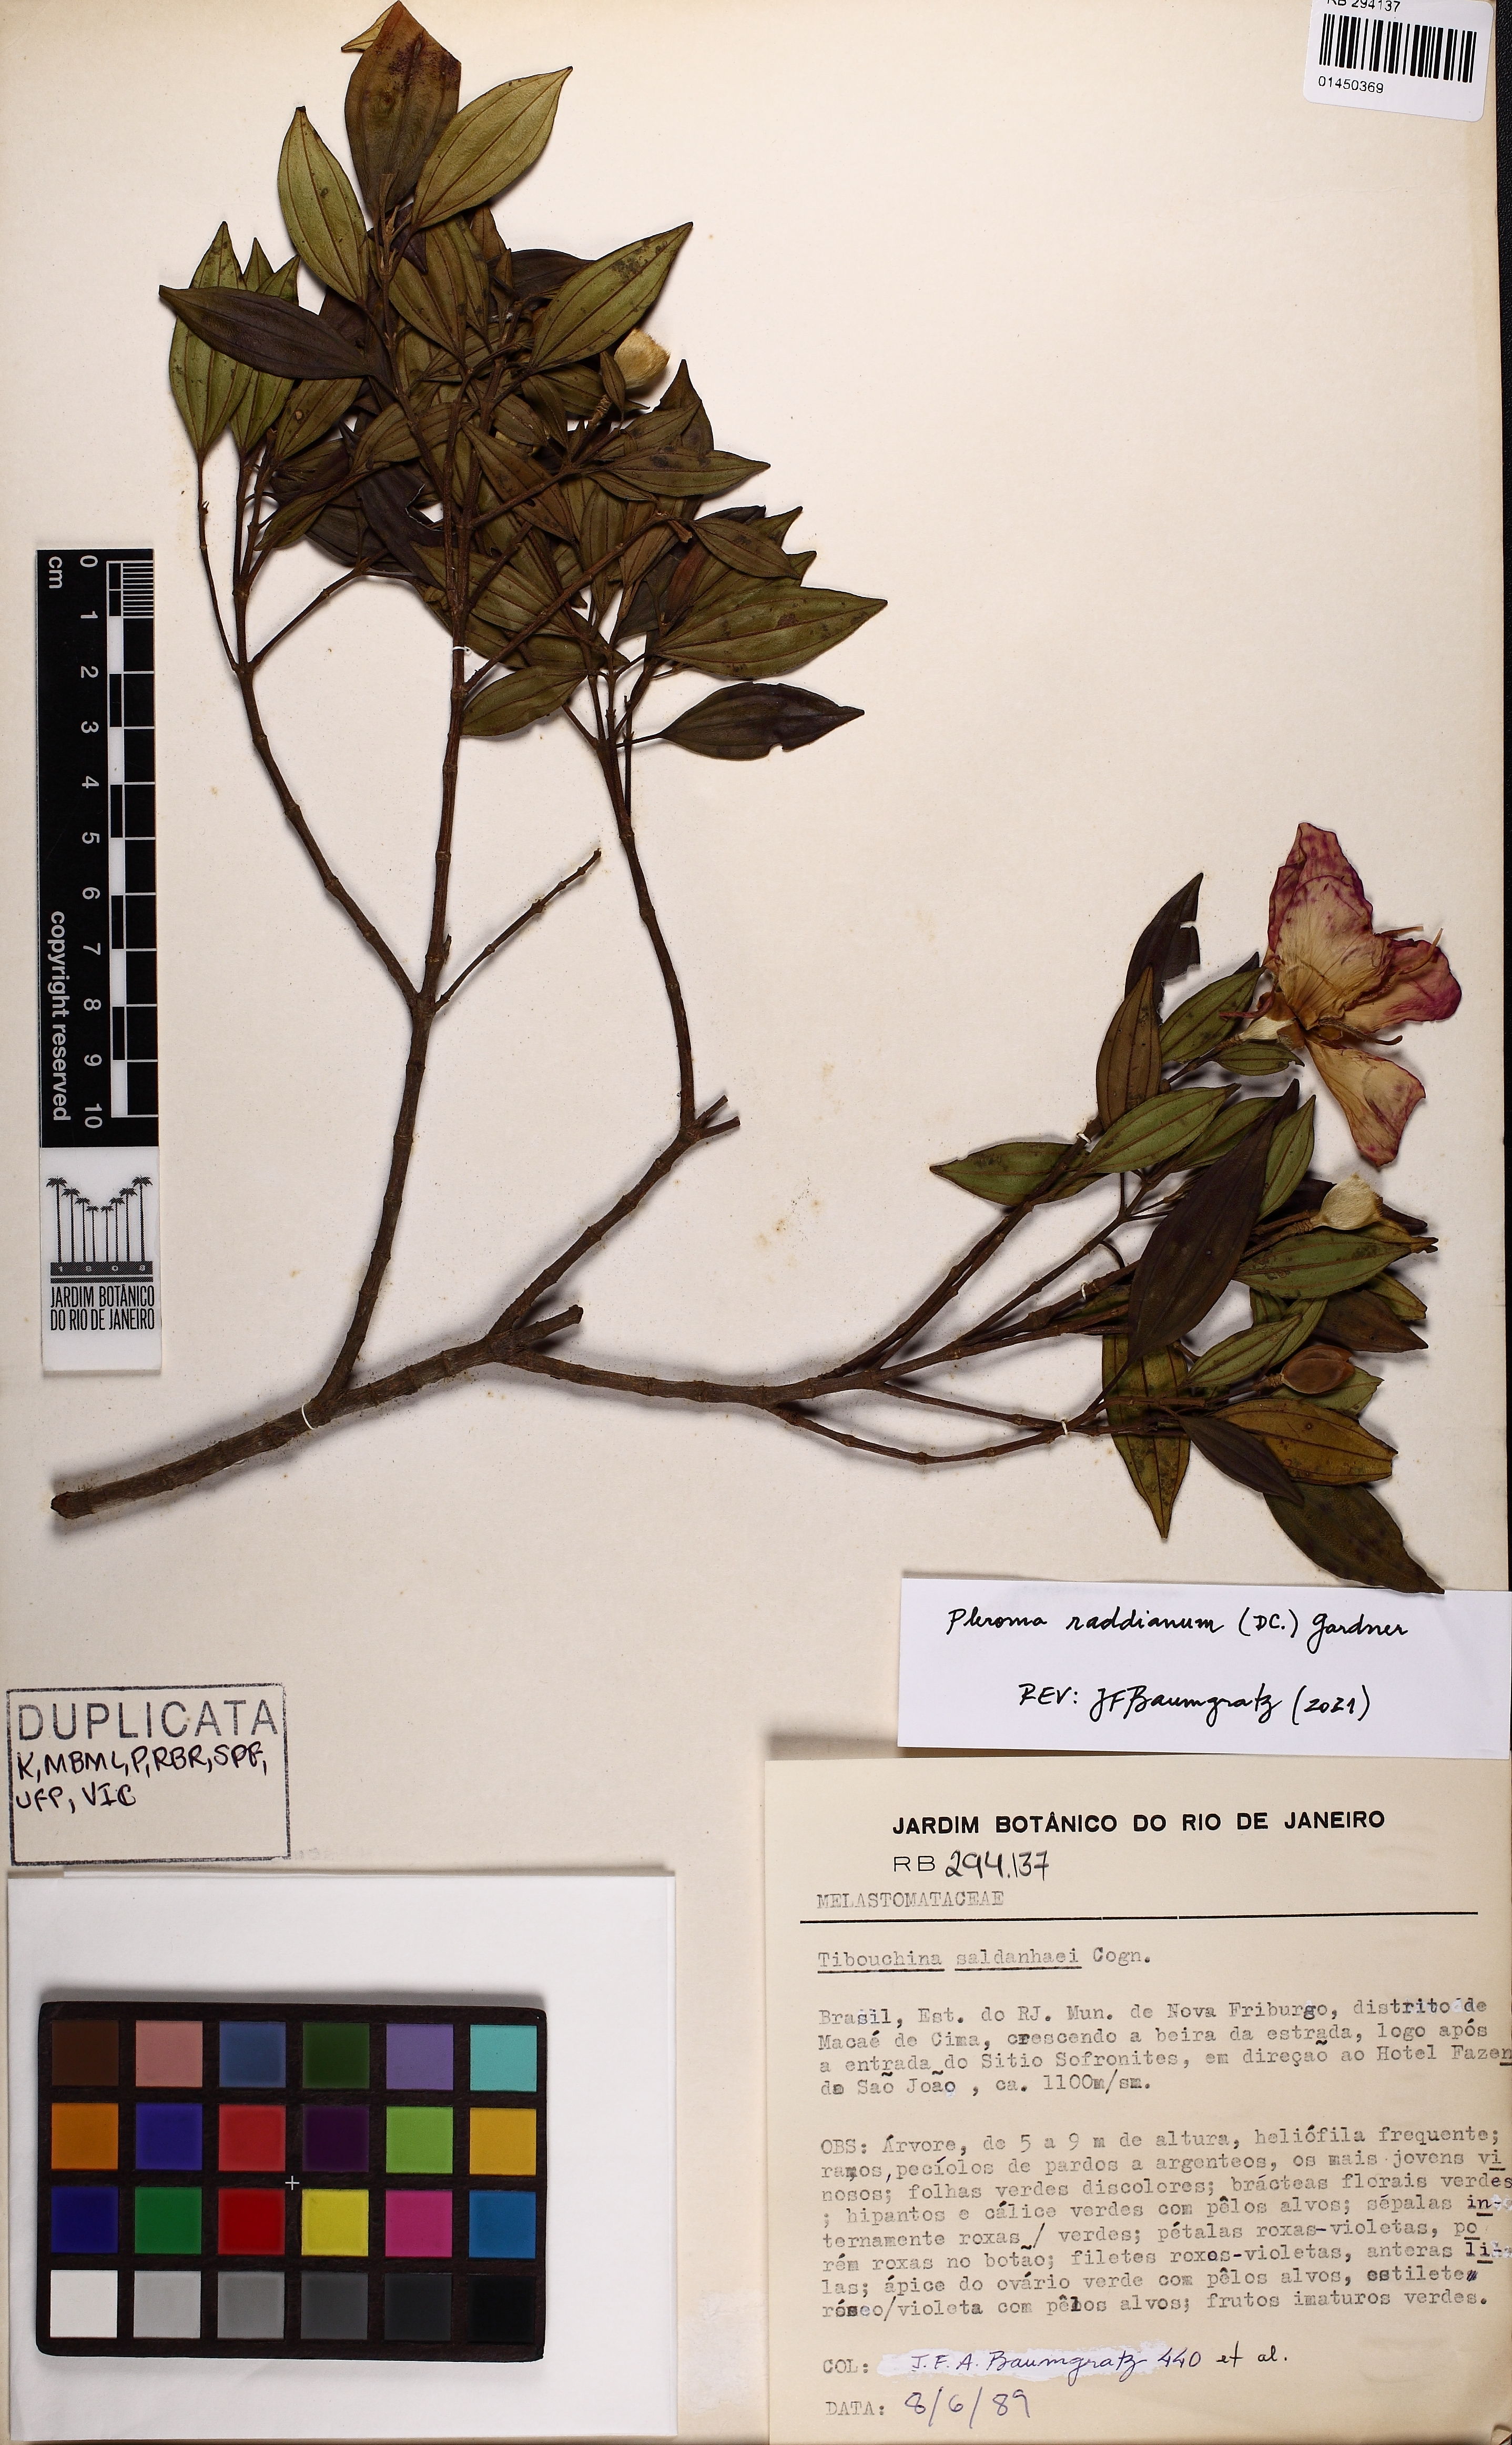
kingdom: Plantae
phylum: Tracheophyta
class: Magnoliopsida
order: Myrtales
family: Melastomataceae
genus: Pleroma
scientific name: Pleroma raddianum
